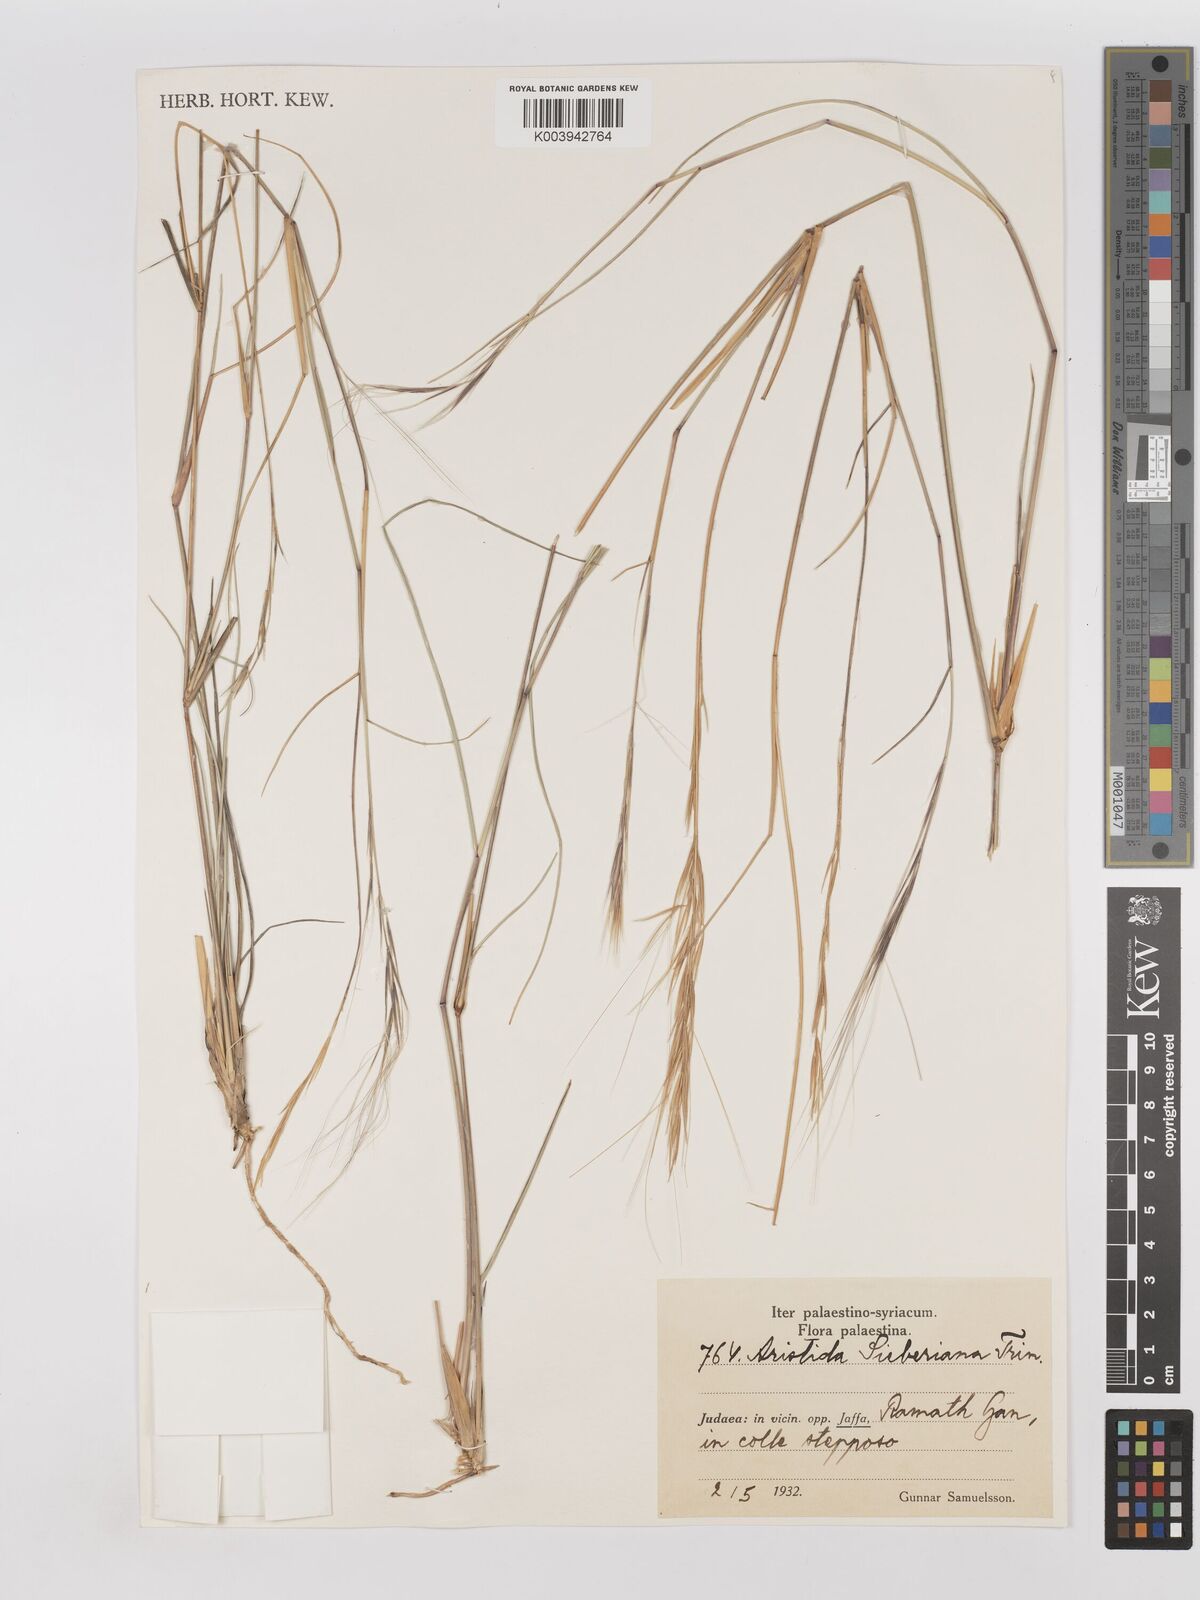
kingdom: Plantae
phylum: Tracheophyta
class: Liliopsida
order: Poales
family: Poaceae
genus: Aristida
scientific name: Aristida sieberiana
